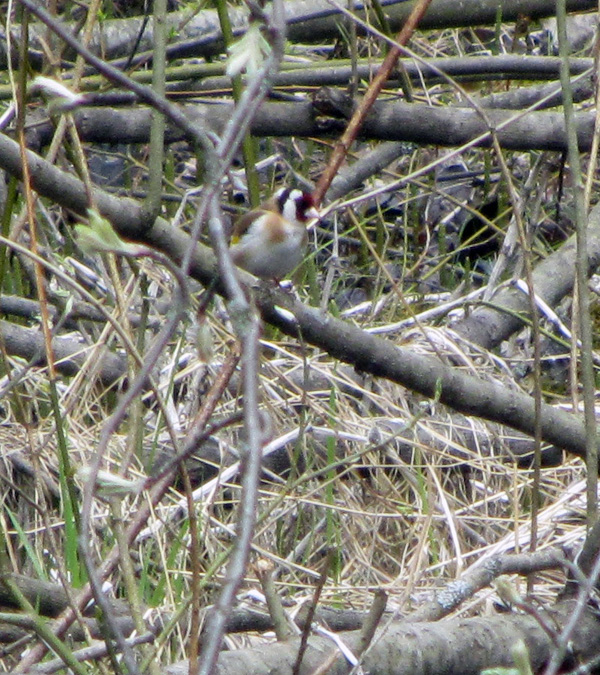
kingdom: Animalia
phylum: Chordata
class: Aves
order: Passeriformes
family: Fringillidae
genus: Carduelis
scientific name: Carduelis carduelis
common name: European goldfinch
